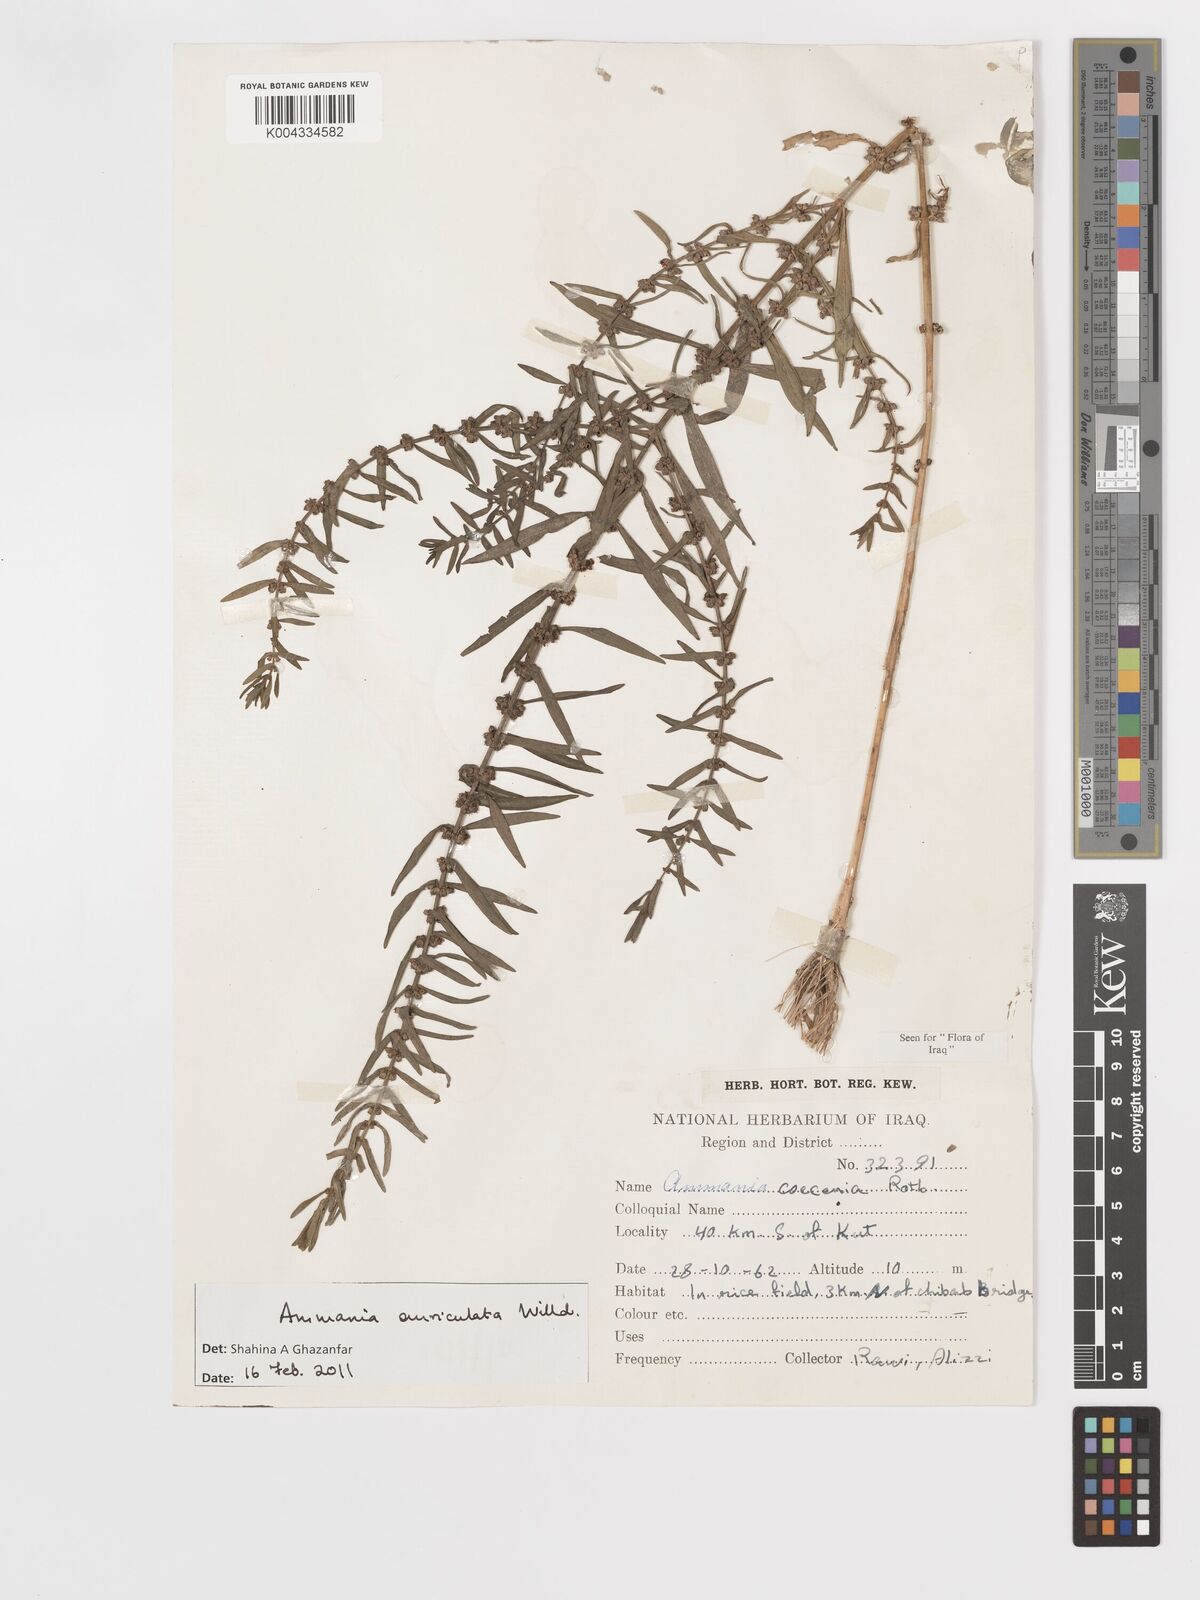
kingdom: Plantae
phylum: Tracheophyta
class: Magnoliopsida
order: Myrtales
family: Lythraceae
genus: Ammannia
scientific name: Ammannia auriculata
